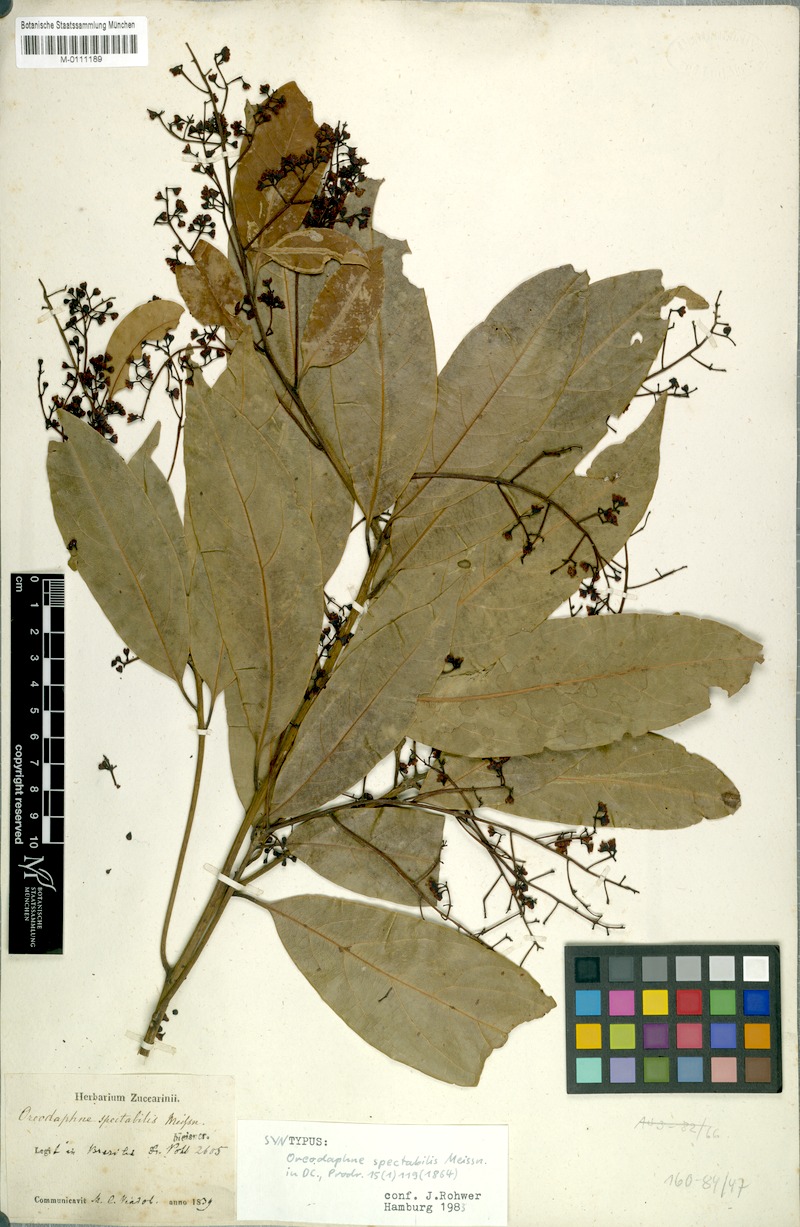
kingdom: Plantae
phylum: Tracheophyta
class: Magnoliopsida
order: Laurales
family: Lauraceae
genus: Ocotea
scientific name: Ocotea spectabilis
